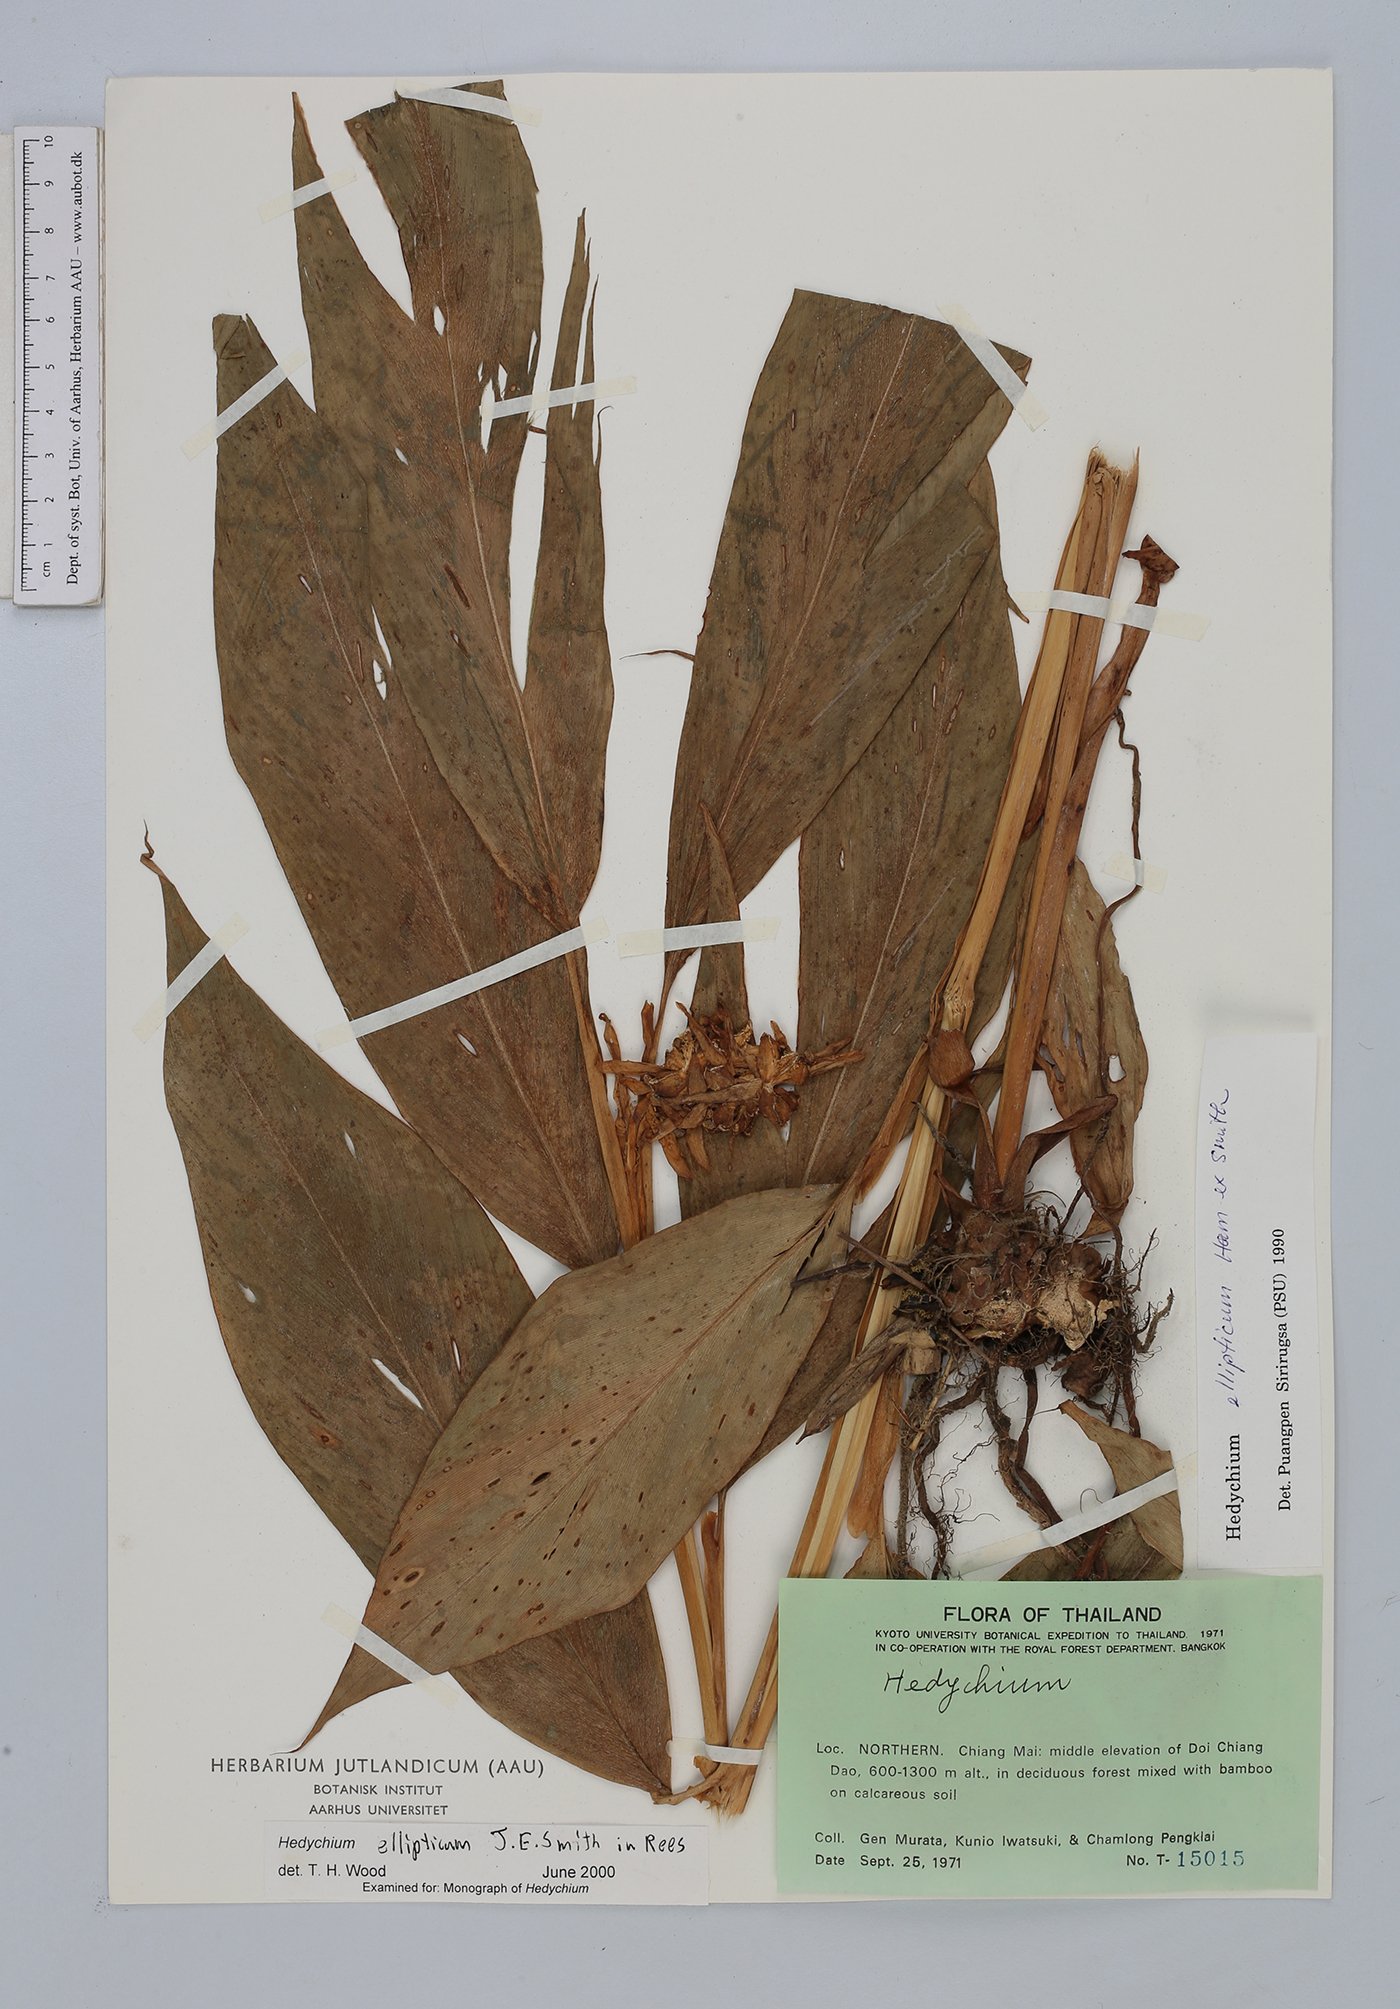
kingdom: Plantae
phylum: Tracheophyta
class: Liliopsida
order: Zingiberales
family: Zingiberaceae
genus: Hedychium
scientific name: Hedychium ellipticum
